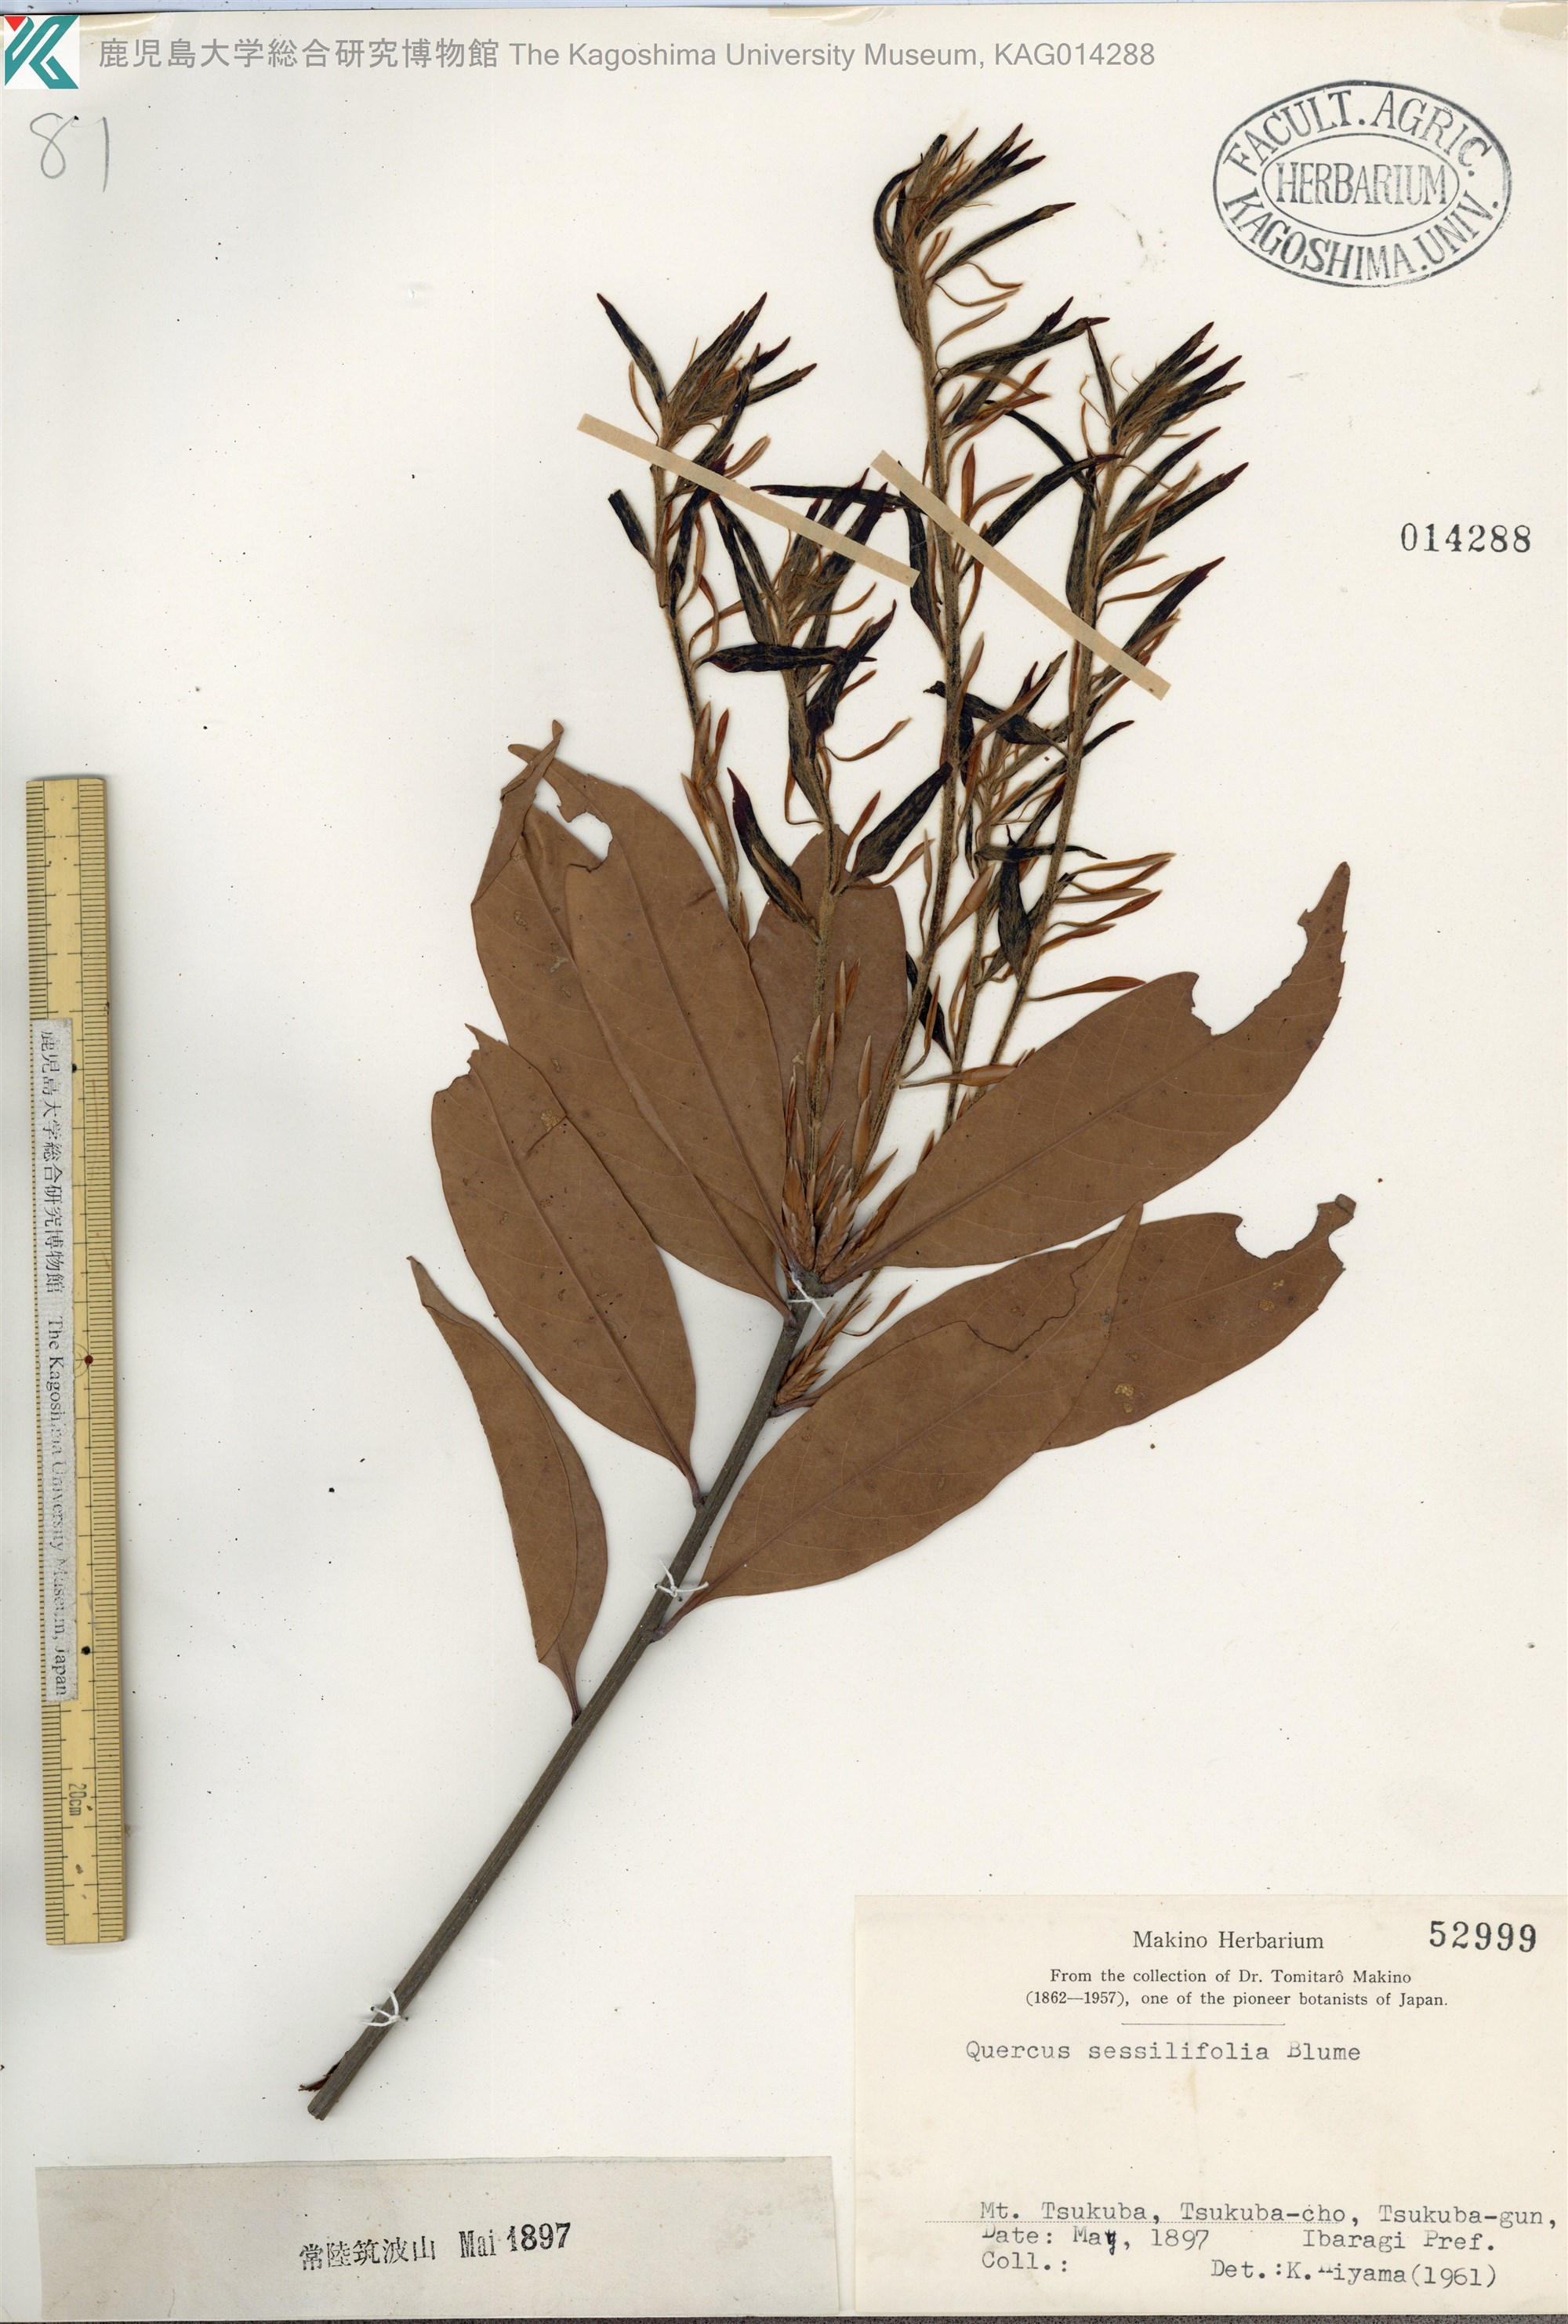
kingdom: Plantae
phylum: Tracheophyta
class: Magnoliopsida
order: Fagales
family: Fagaceae
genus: Quercus
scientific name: Quercus sessilifolia
